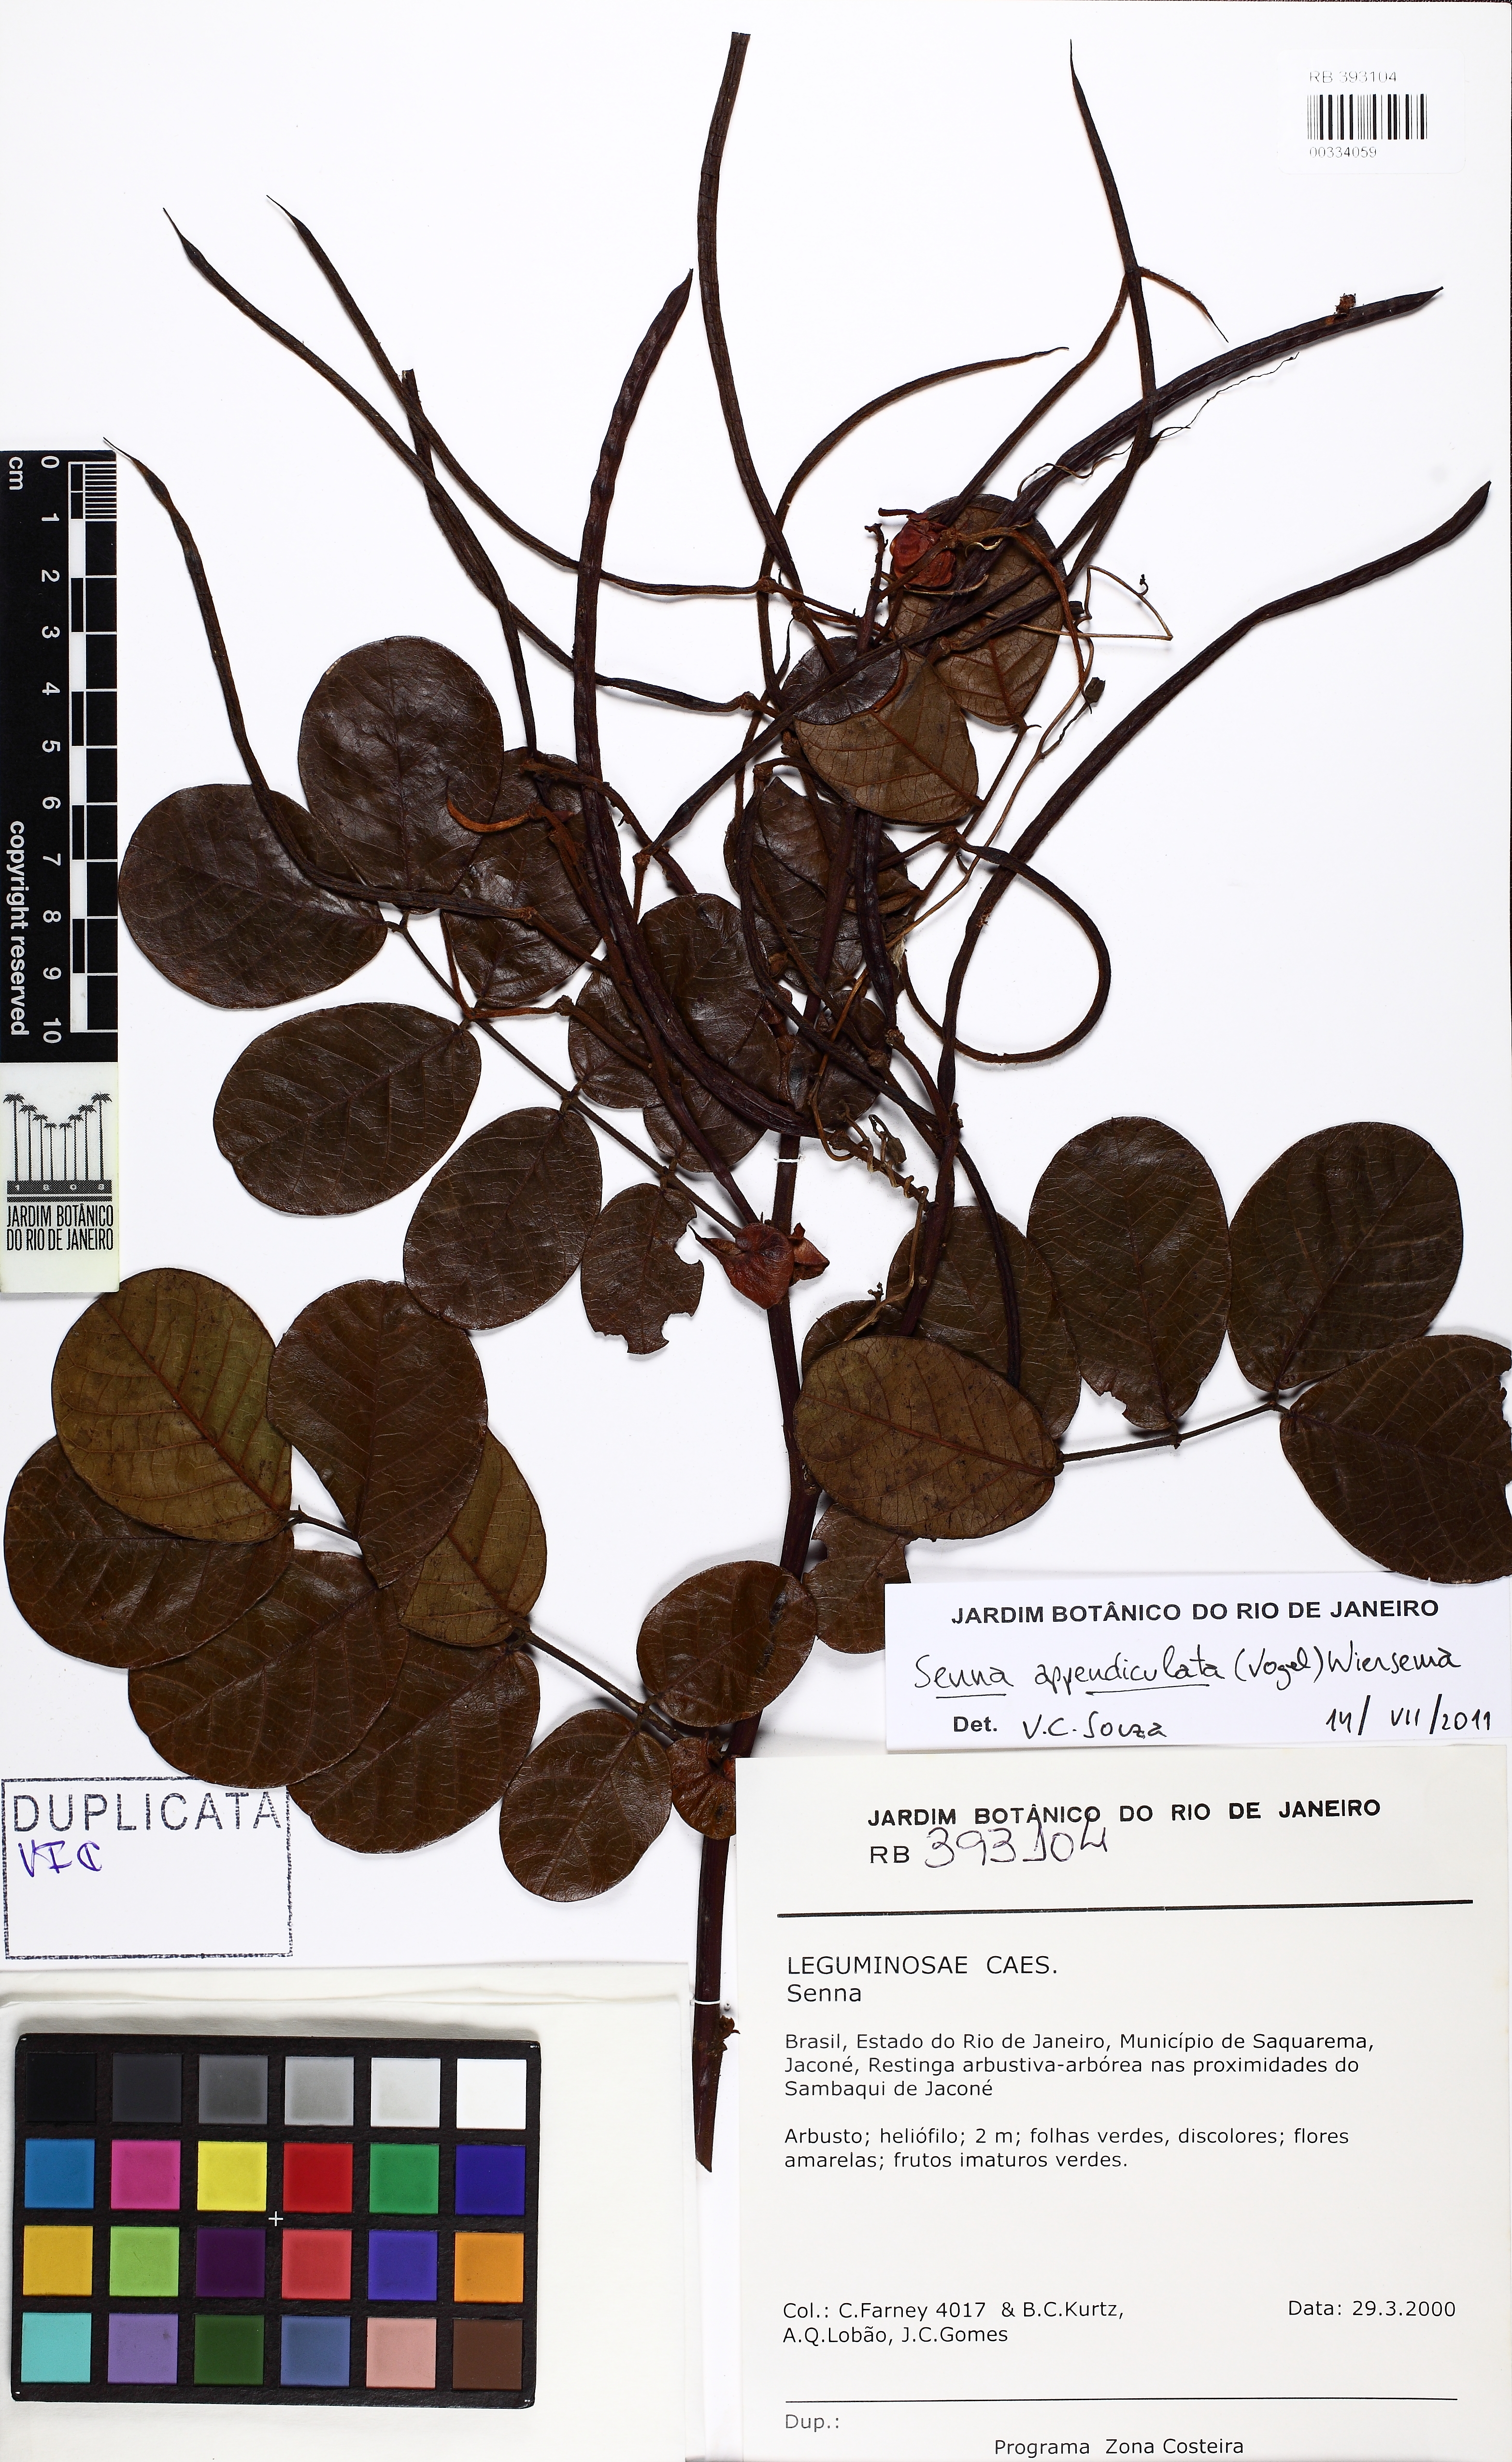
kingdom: Plantae
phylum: Tracheophyta
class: Magnoliopsida
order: Fabales
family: Fabaceae
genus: Senna
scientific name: Senna appendiculata
